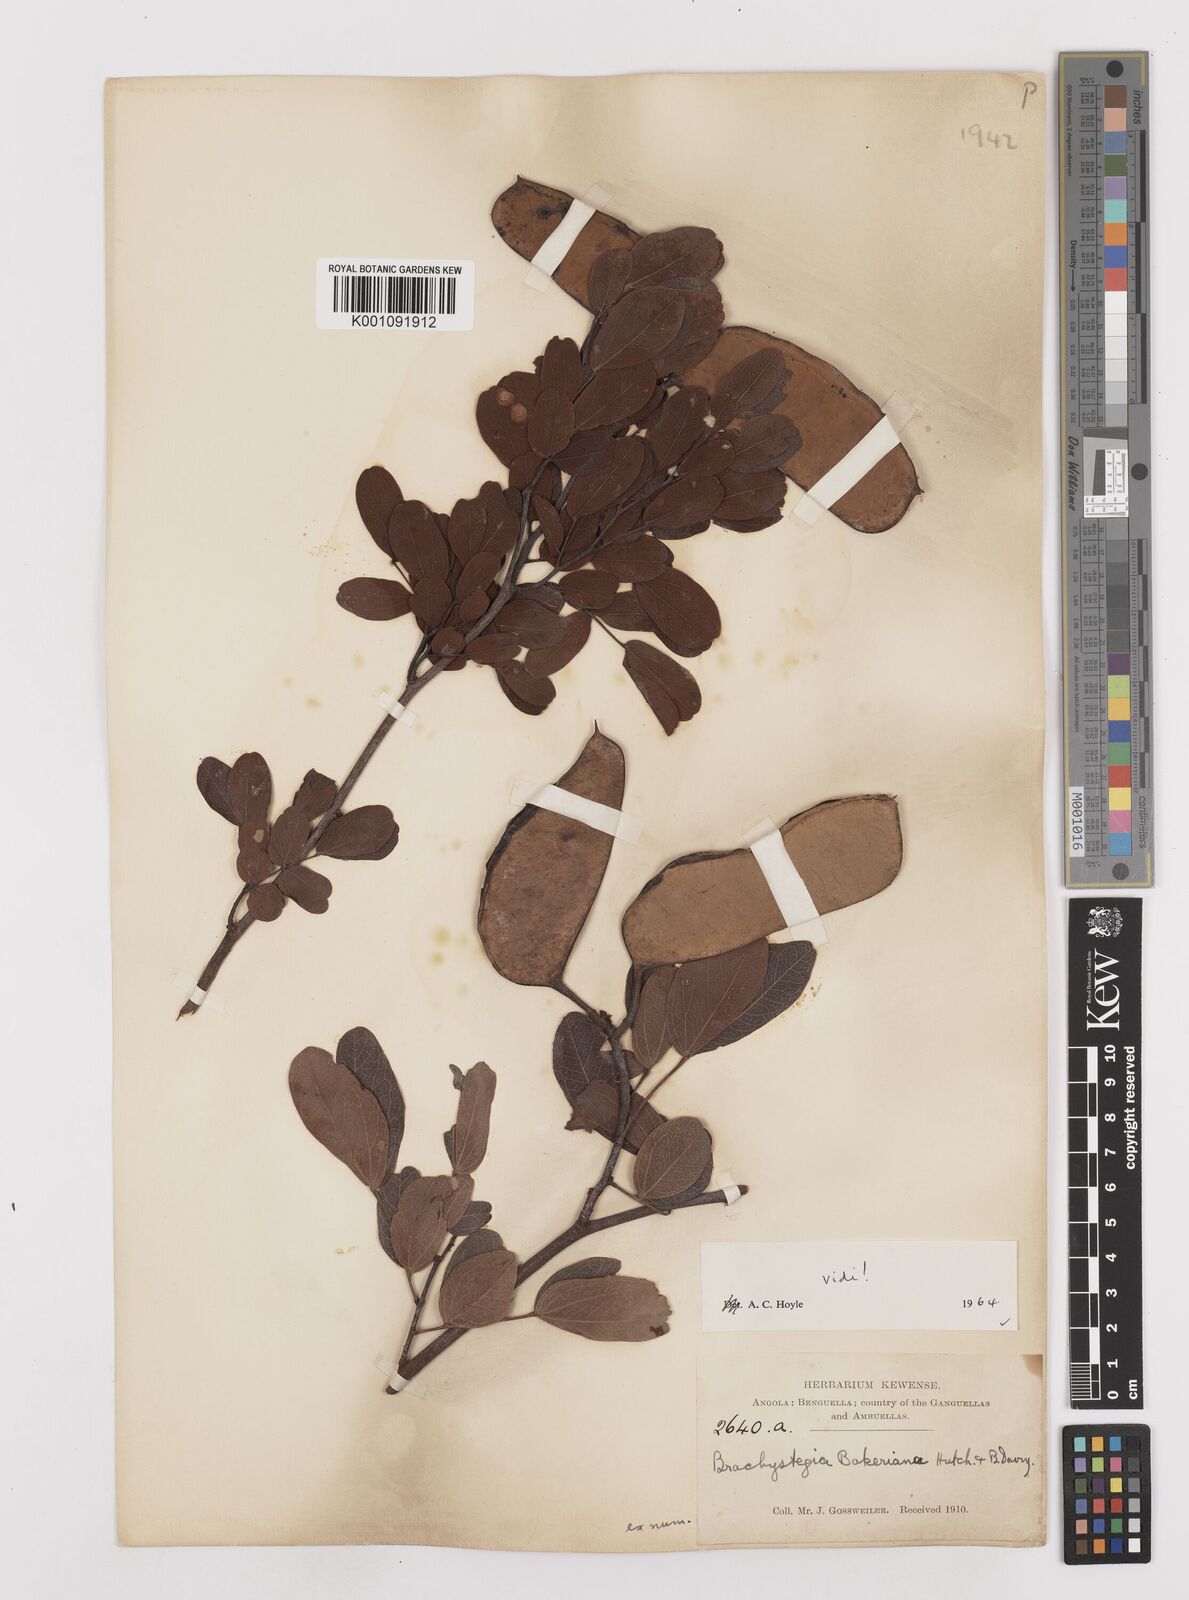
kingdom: Plantae
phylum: Tracheophyta
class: Magnoliopsida
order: Fabales
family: Fabaceae
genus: Brachystegia
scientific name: Brachystegia bakeriana
